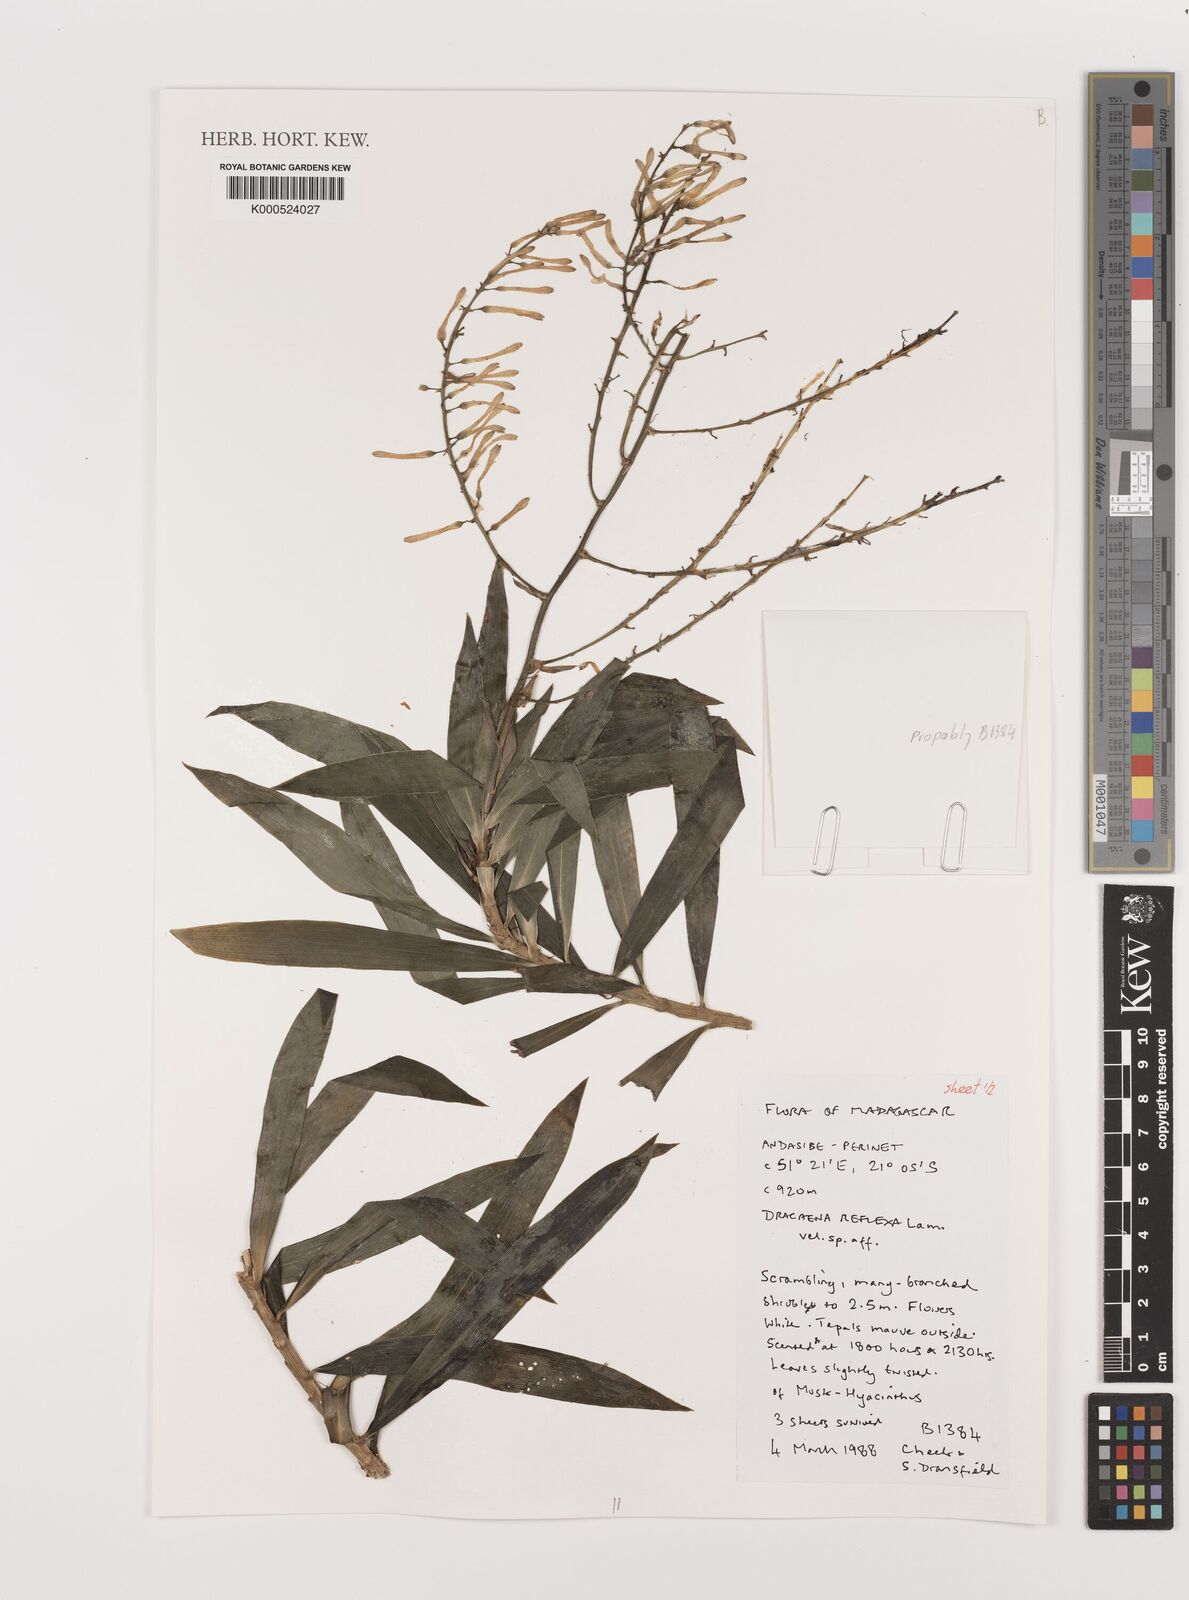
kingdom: Plantae
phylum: Tracheophyta
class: Liliopsida
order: Asparagales
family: Asparagaceae
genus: Dracaena
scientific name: Dracaena reflexa
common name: Song-of-india
